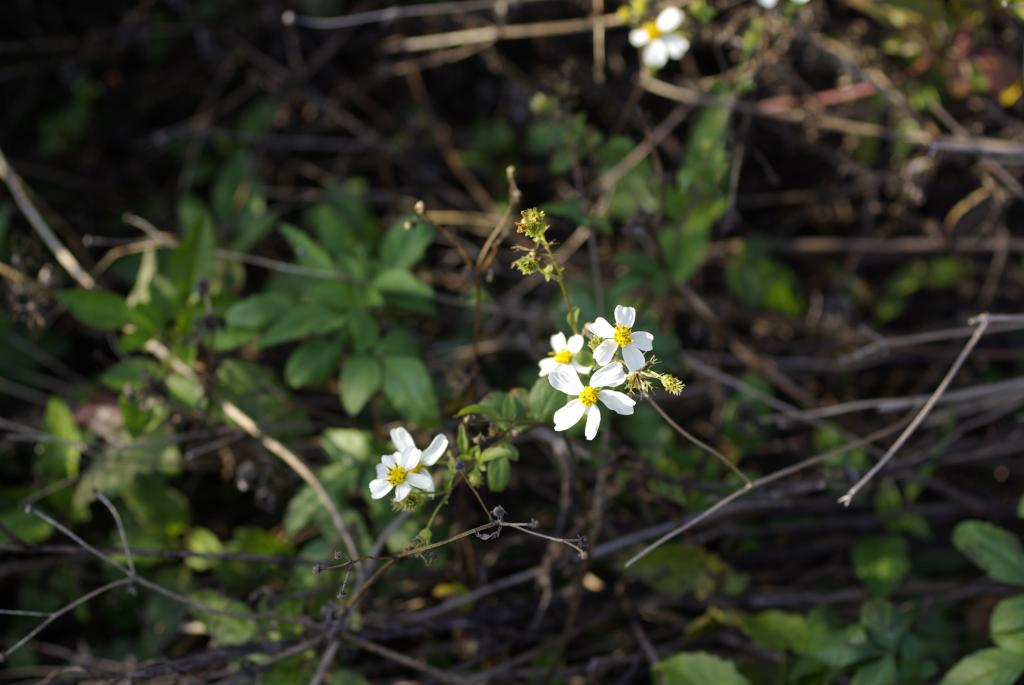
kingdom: Plantae
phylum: Tracheophyta
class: Magnoliopsida
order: Asterales
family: Asteraceae
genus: Bidens
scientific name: Bidens pilosa
